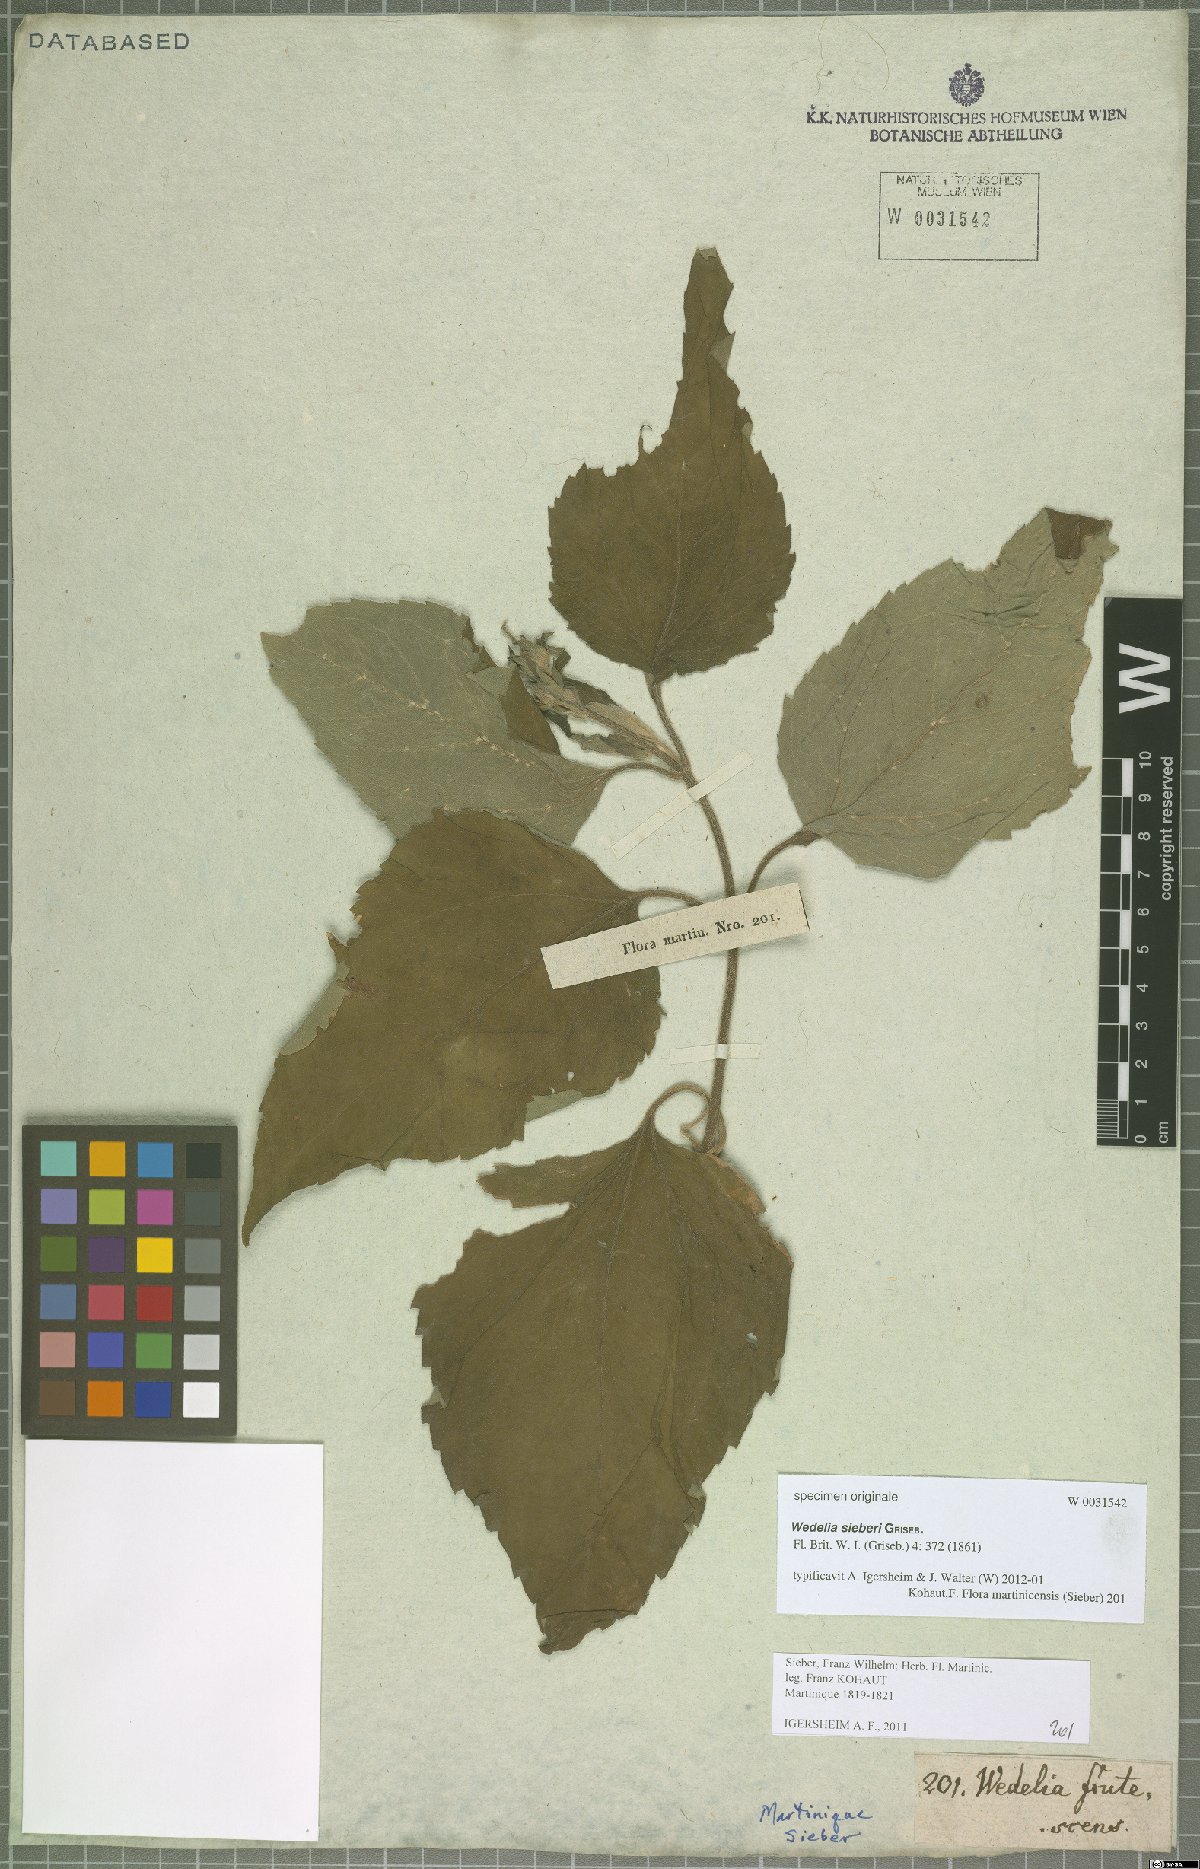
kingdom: Plantae
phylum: Tracheophyta
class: Magnoliopsida
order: Asterales
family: Asteraceae
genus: Wedelia
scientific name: Wedelia calycina
